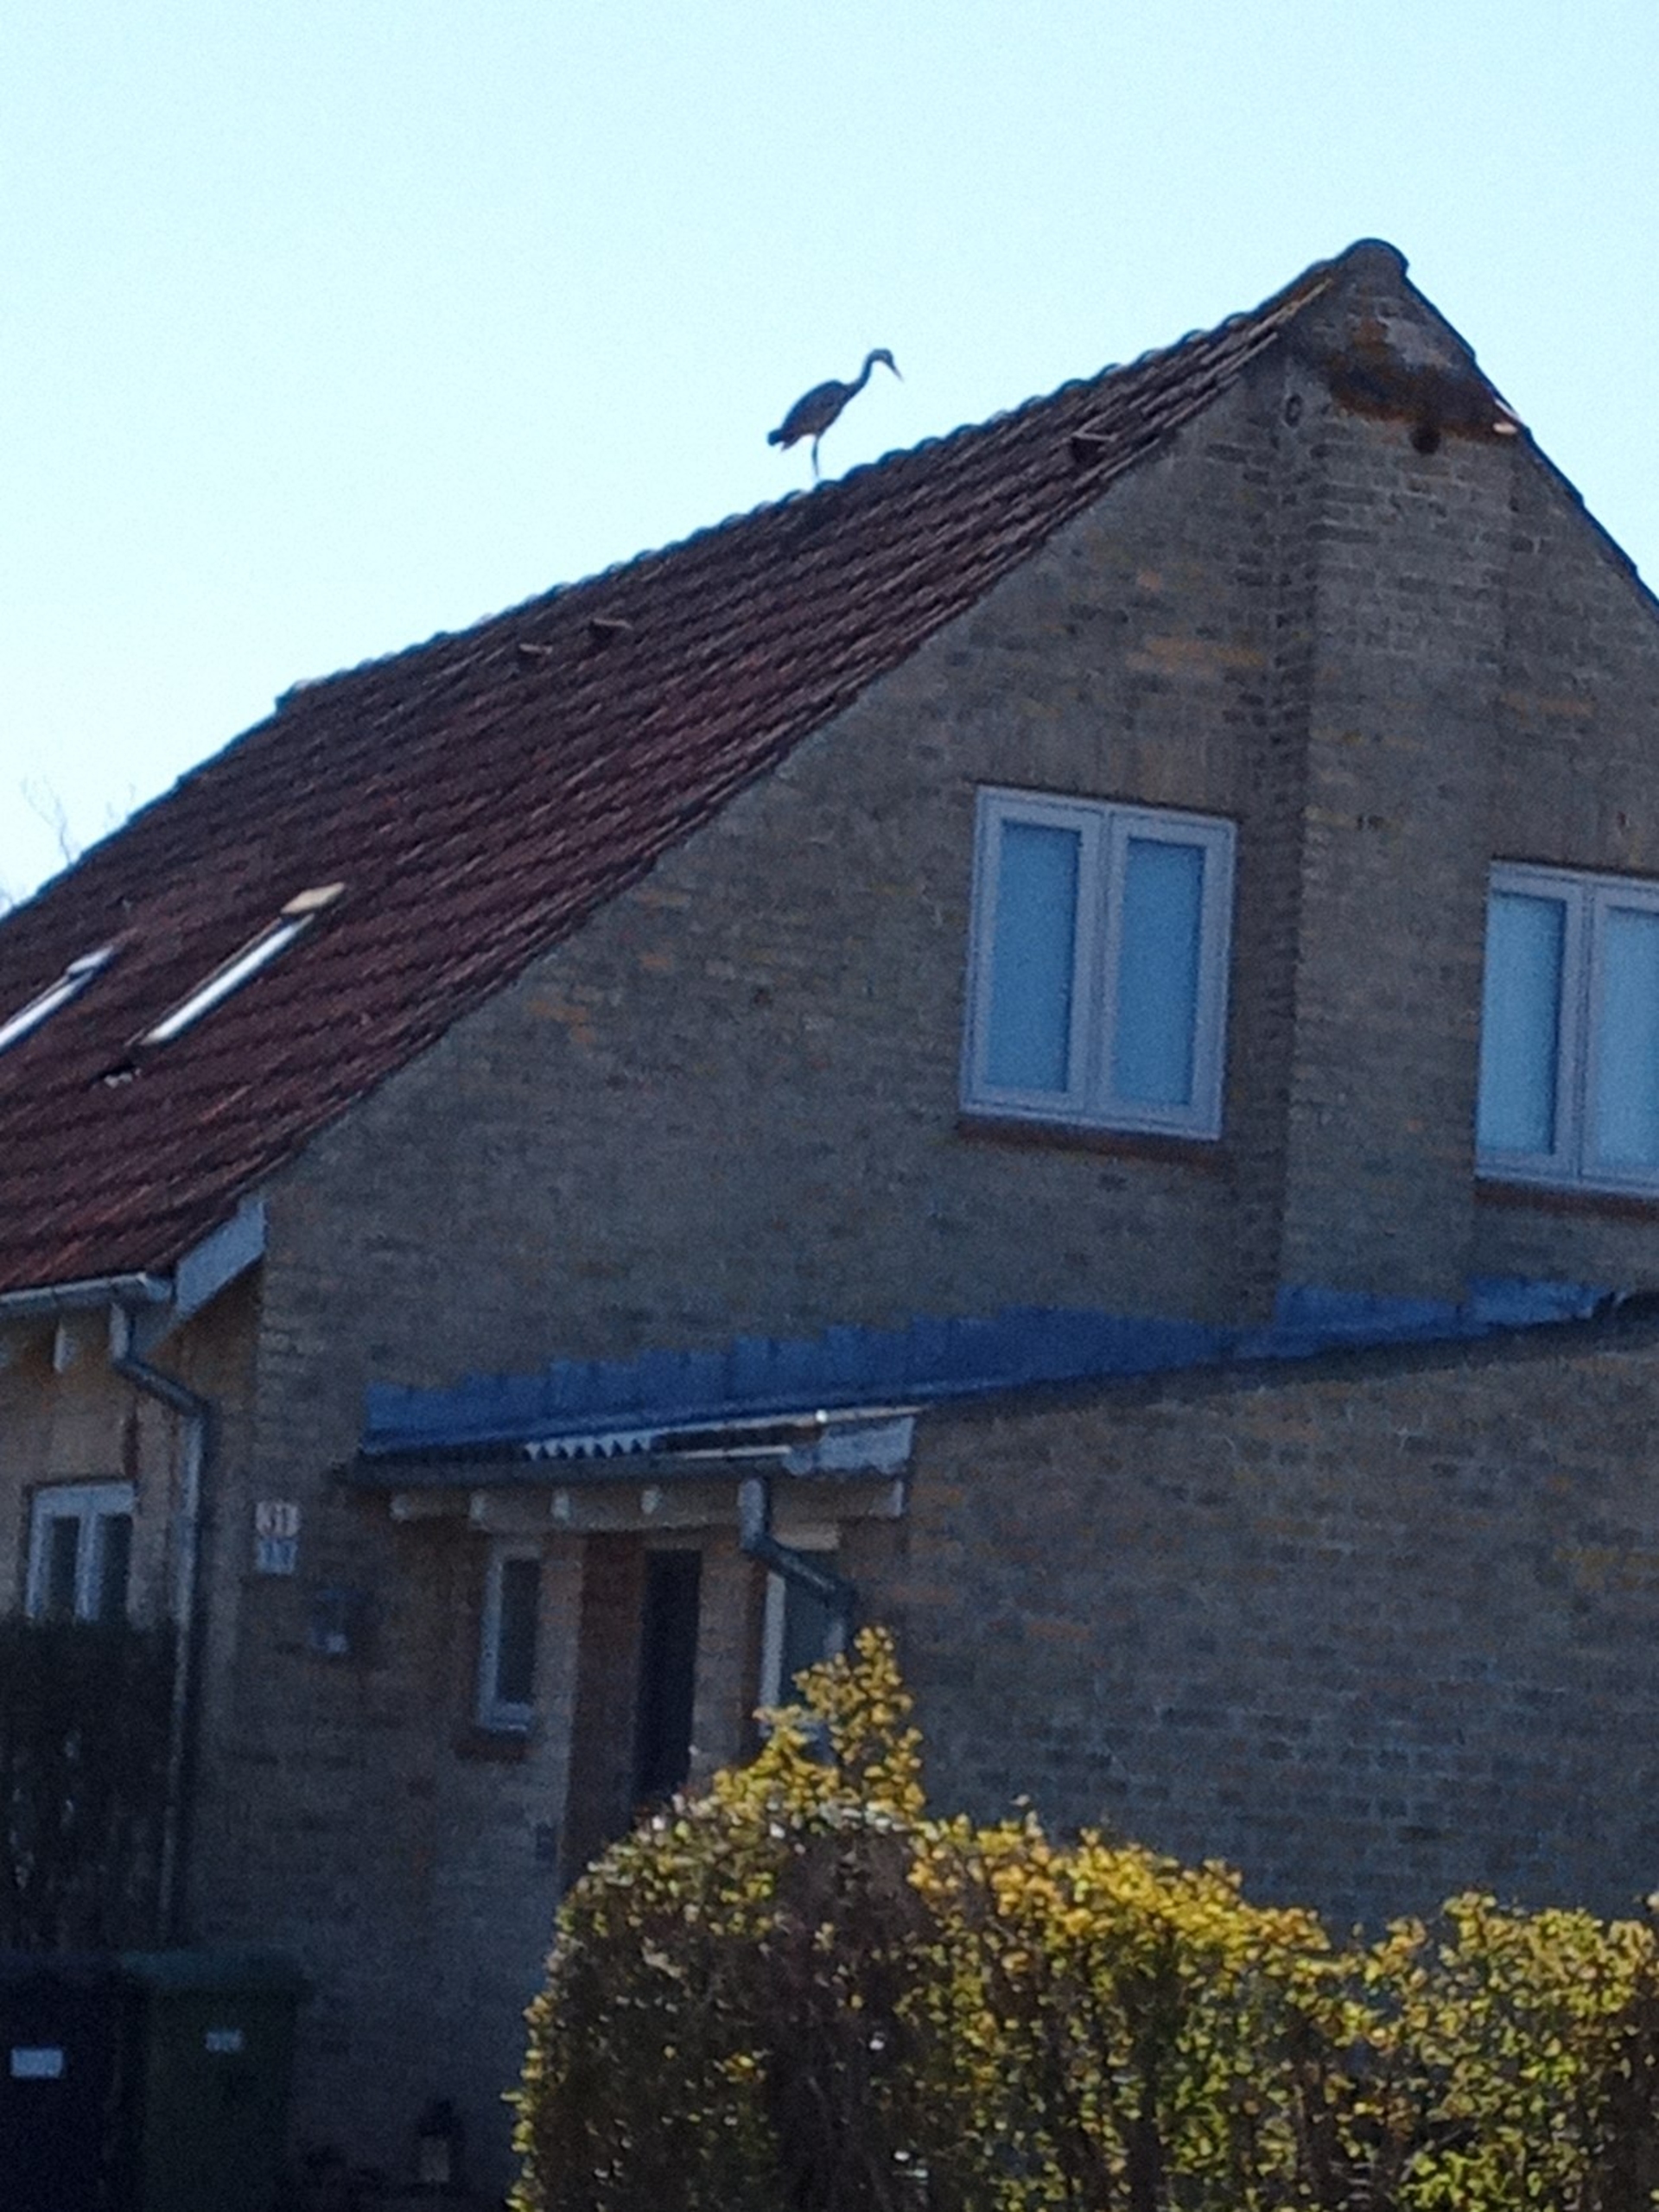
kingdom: Animalia
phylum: Chordata
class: Aves
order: Pelecaniformes
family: Ardeidae
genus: Ardea
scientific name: Ardea cinerea
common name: Fiskehejre
